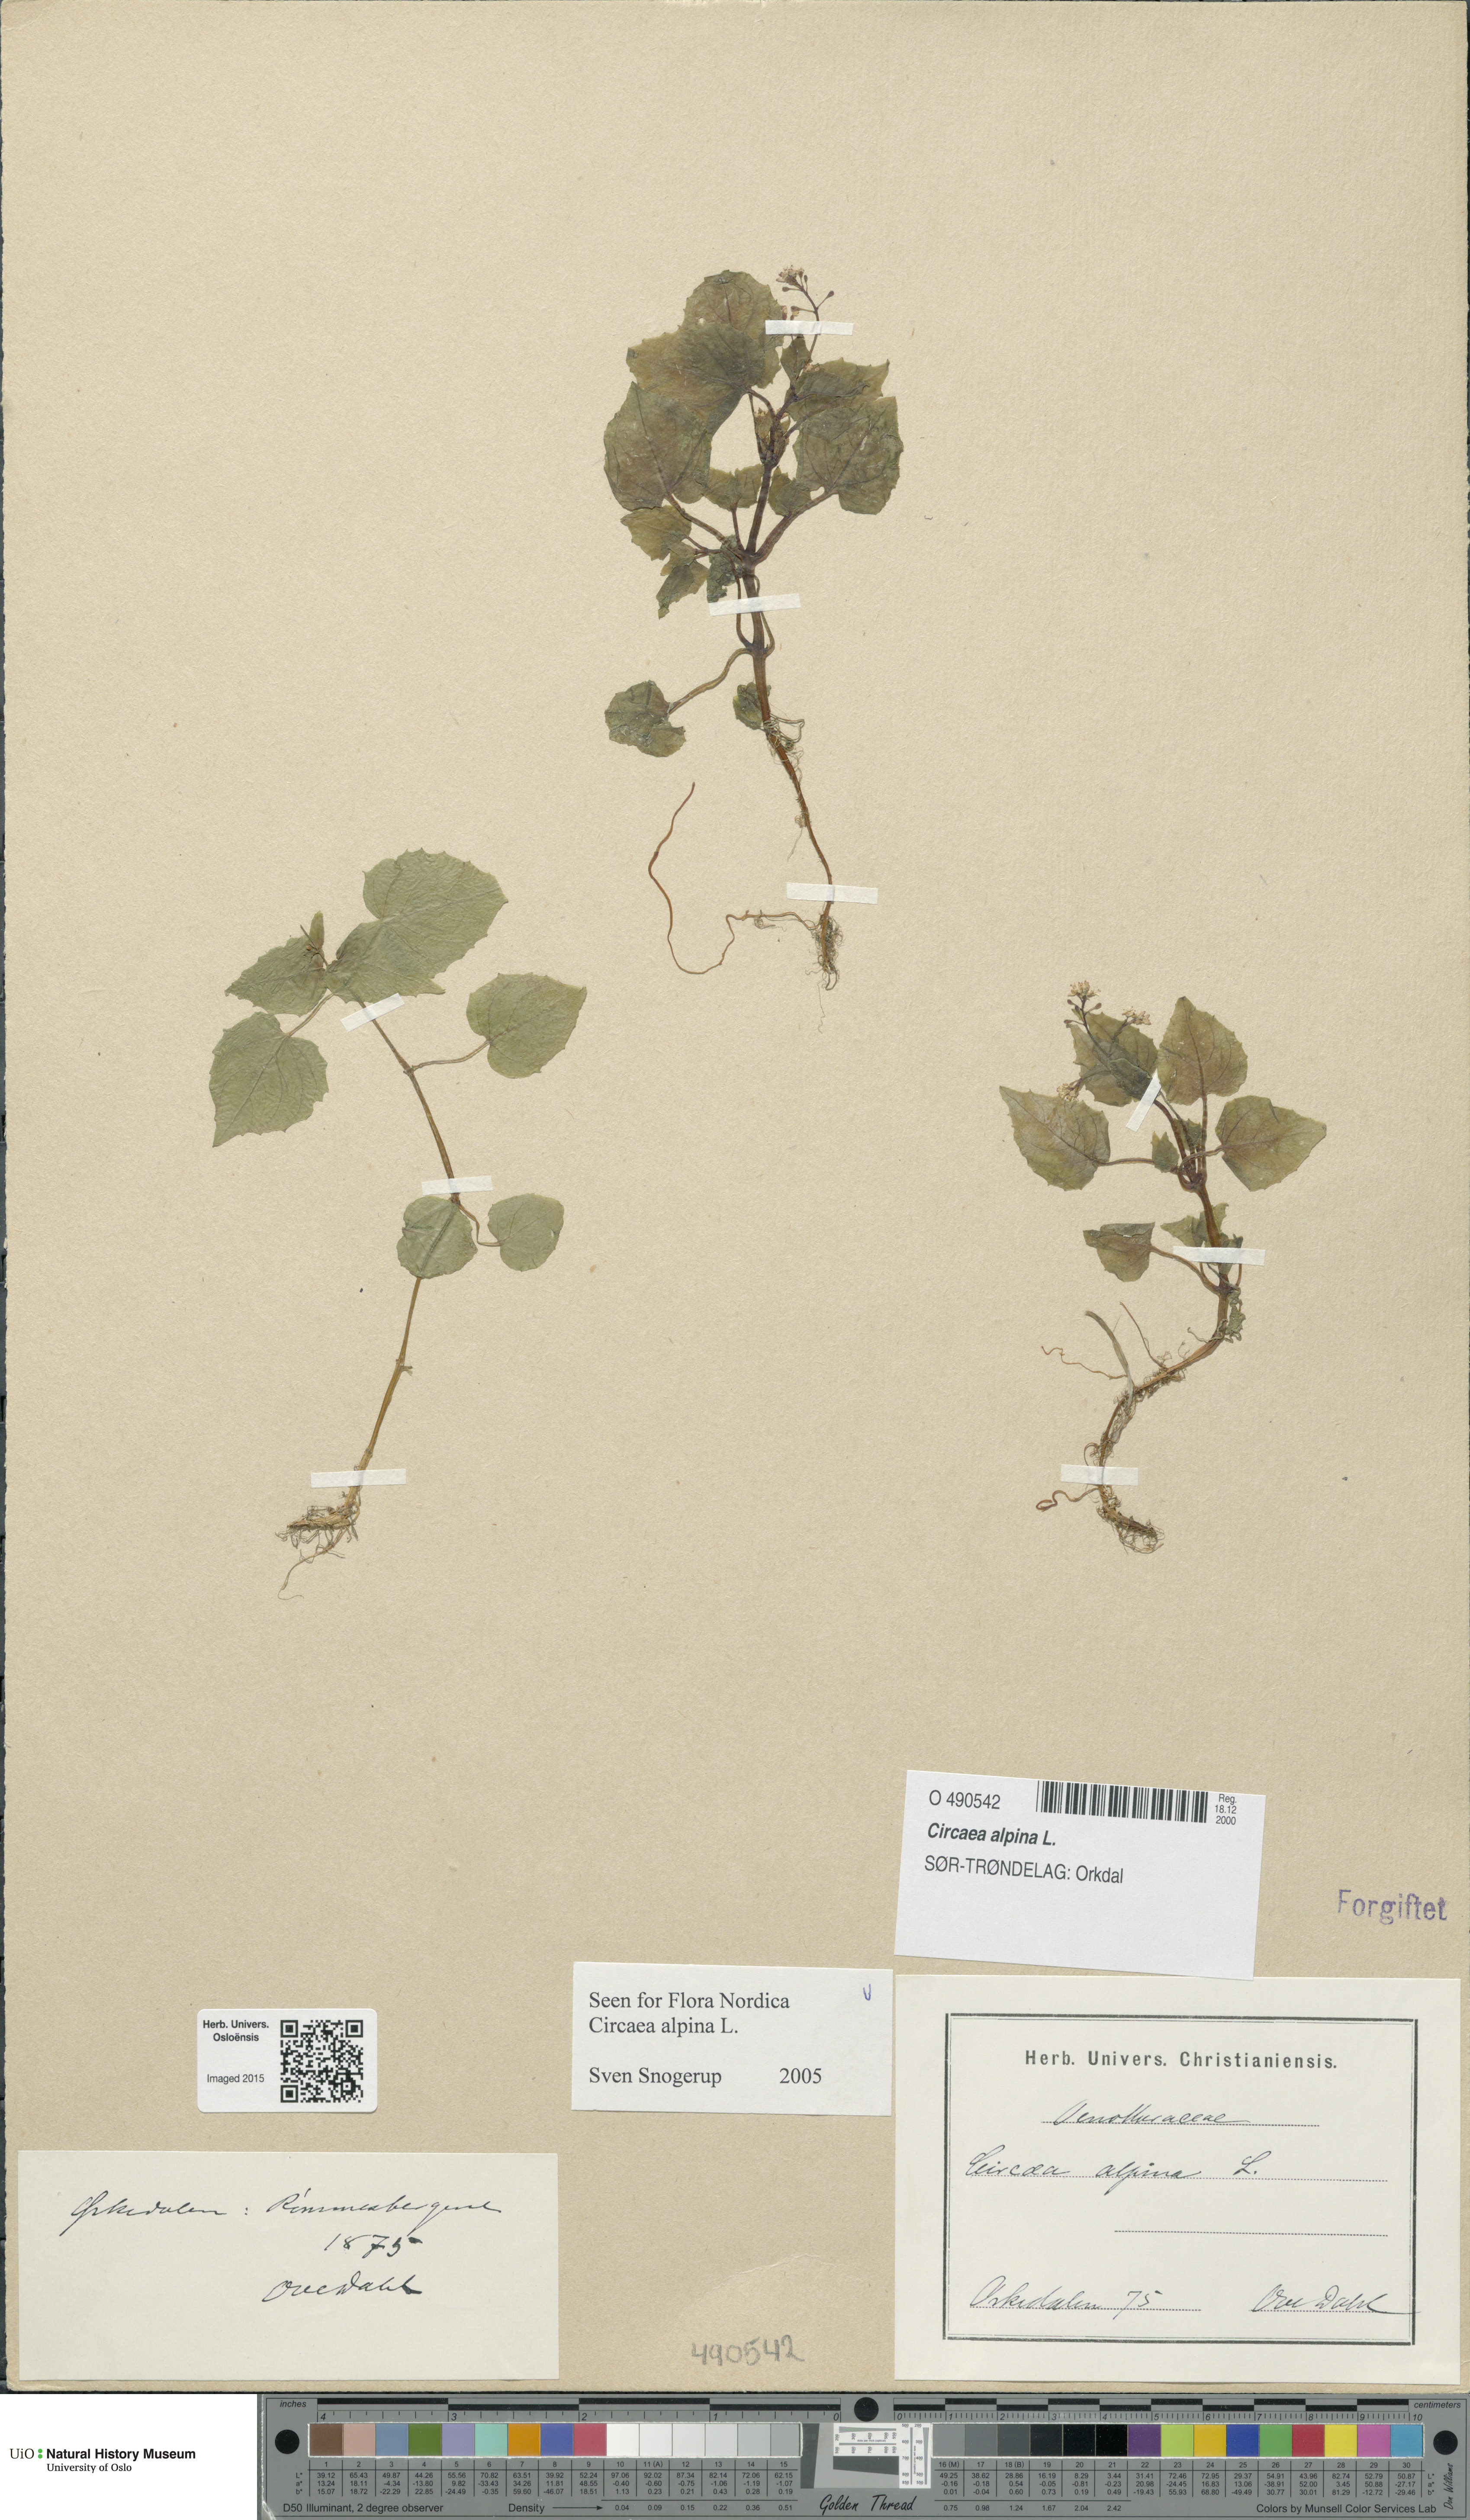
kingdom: Plantae
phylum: Tracheophyta
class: Magnoliopsida
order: Myrtales
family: Onagraceae
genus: Circaea
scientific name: Circaea alpina
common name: Alpine enchanter's-nightshade
